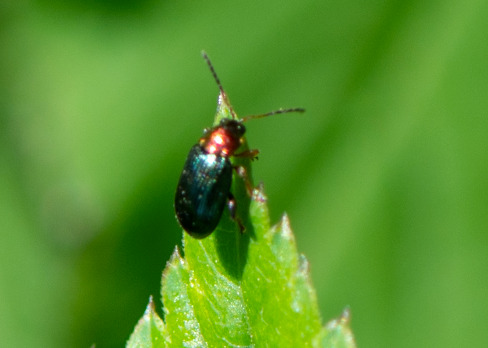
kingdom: Animalia
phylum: Arthropoda
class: Insecta
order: Coleoptera
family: Chrysomelidae
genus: Crepidodera
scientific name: Crepidodera aurata
